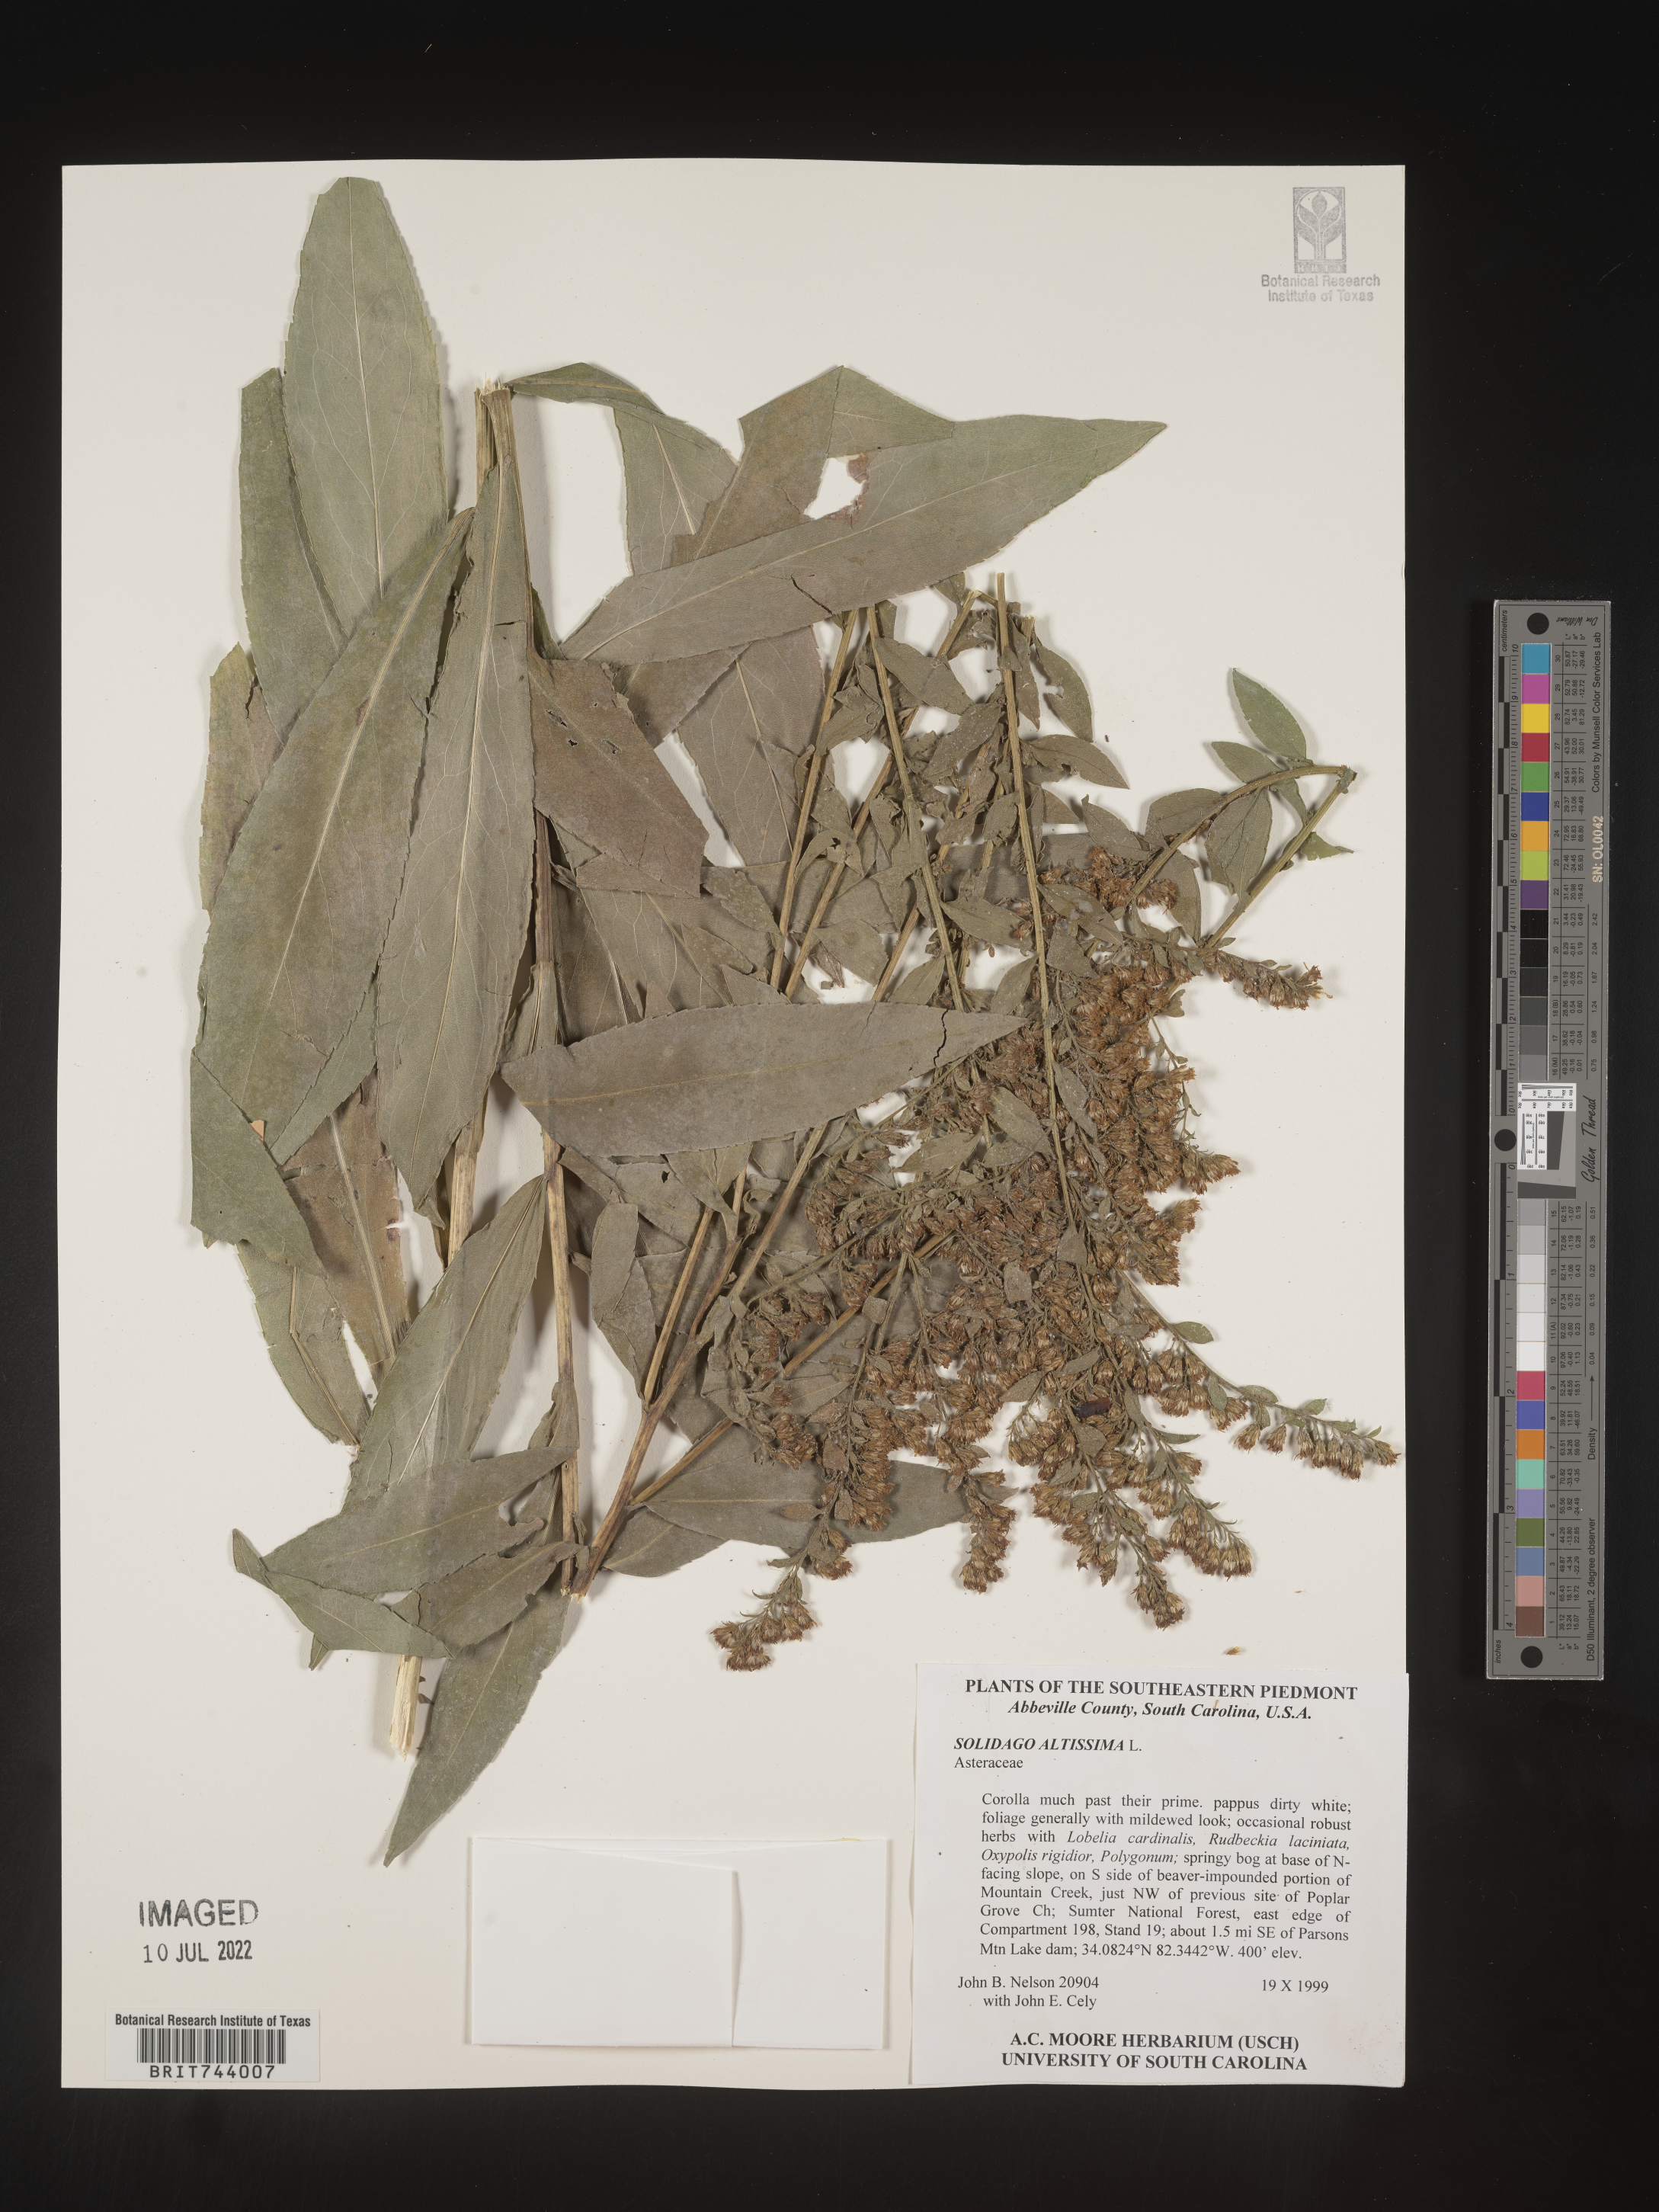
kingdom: Plantae
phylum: Tracheophyta
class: Magnoliopsida
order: Asterales
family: Asteraceae
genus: Solidago
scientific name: Solidago altissima
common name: Late goldenrod
